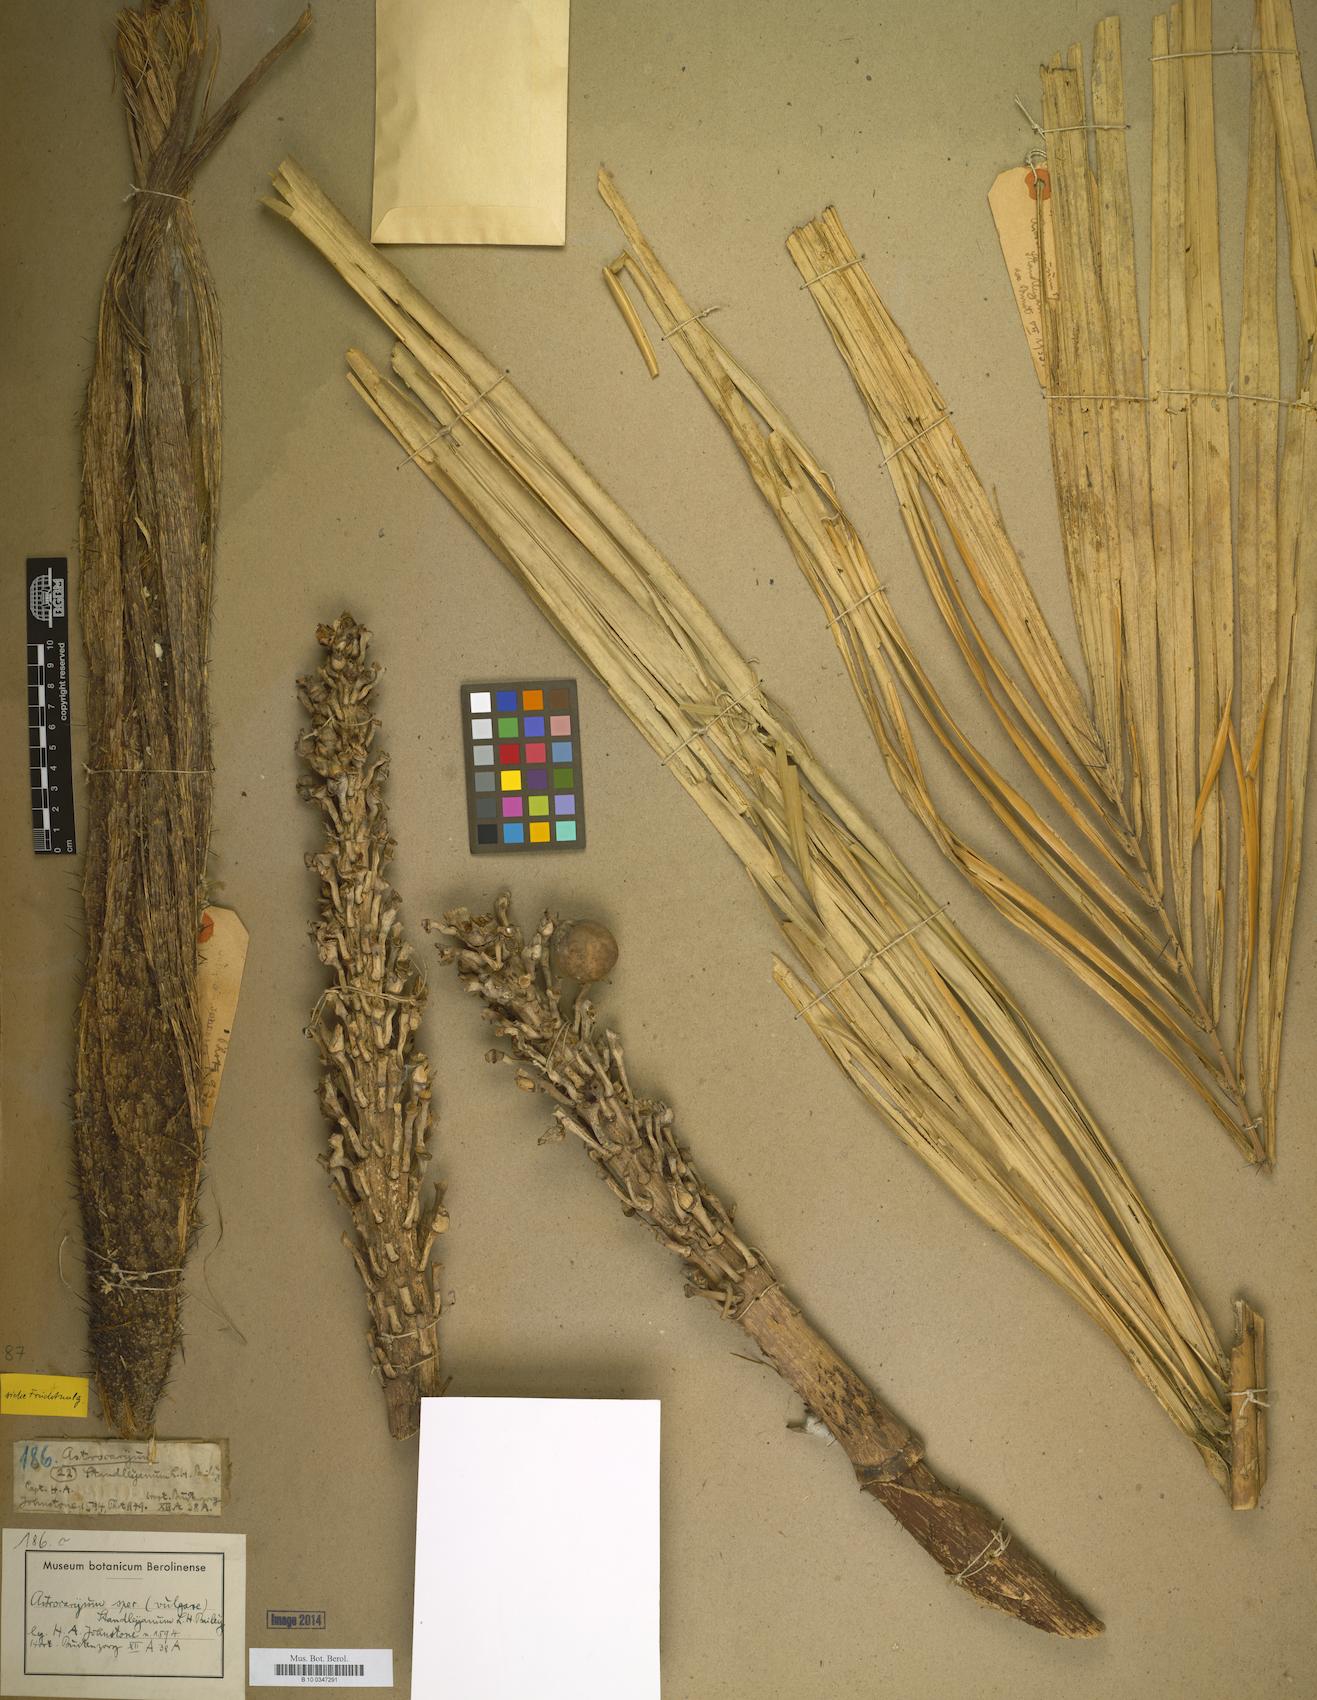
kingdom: Plantae
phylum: Tracheophyta
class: Liliopsida
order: Arecales
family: Arecaceae
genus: Astrocaryum
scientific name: Astrocaryum vulgare
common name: Tucum palm
